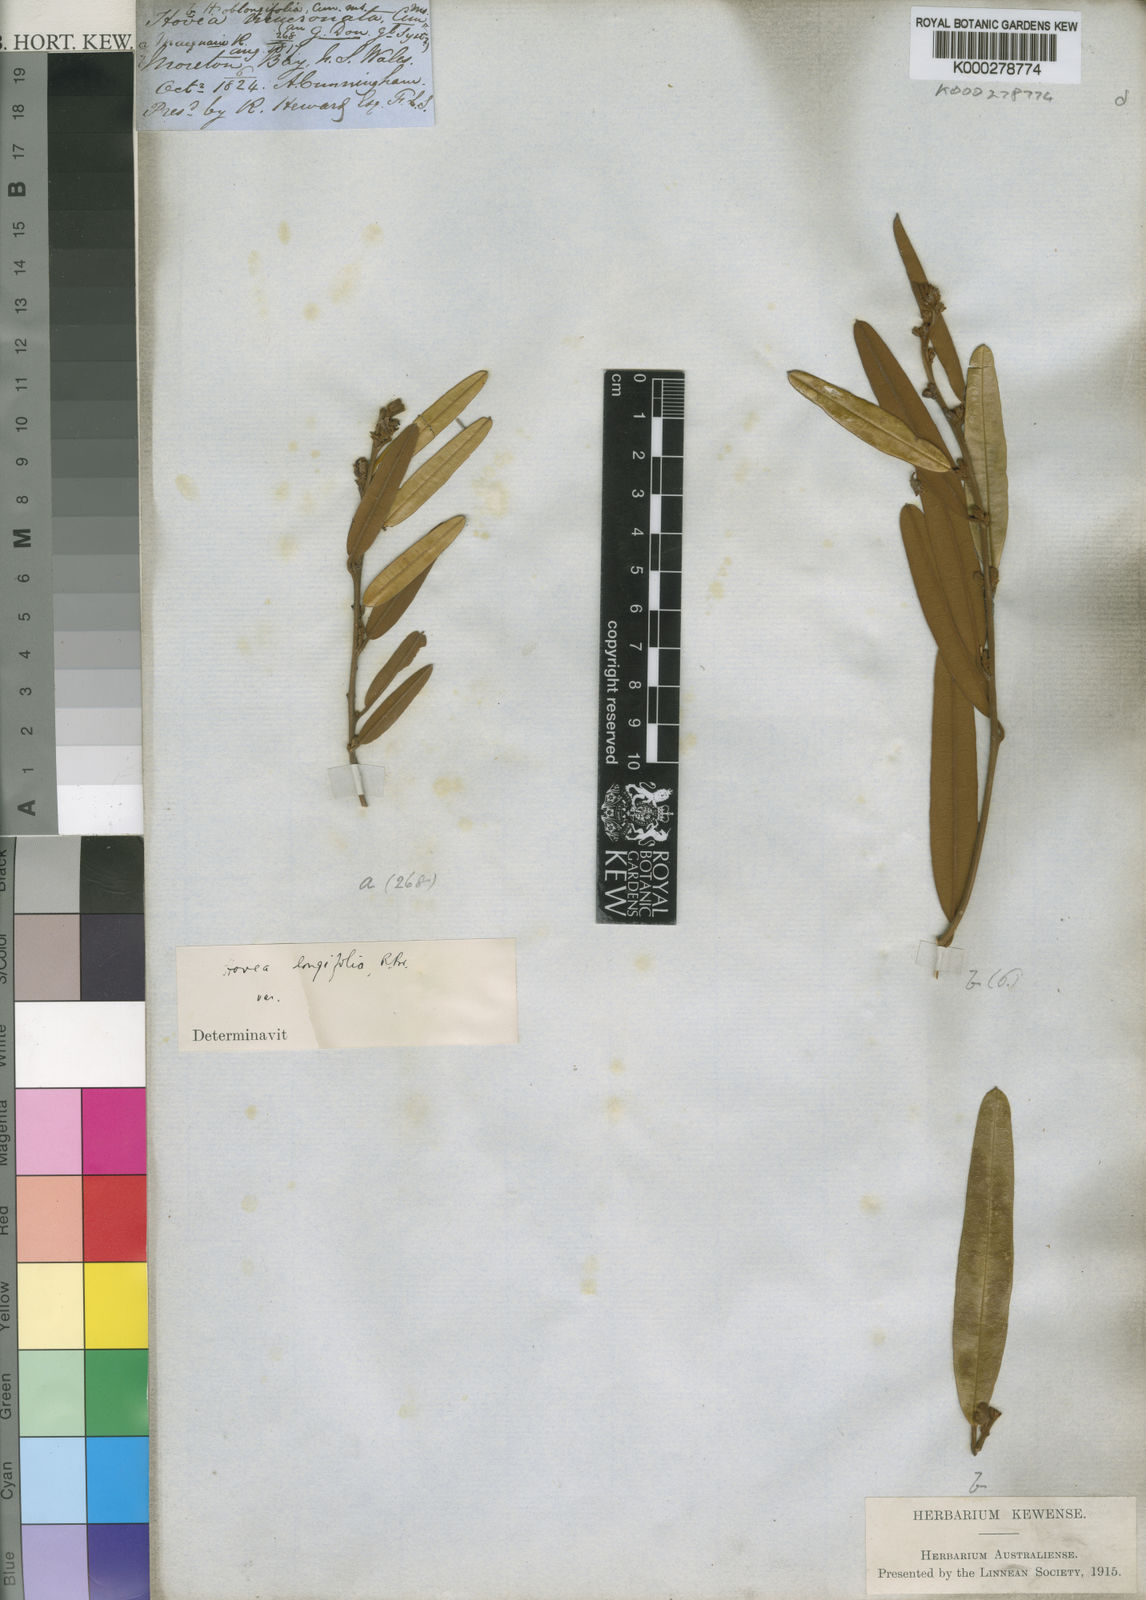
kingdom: Plantae
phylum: Tracheophyta
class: Magnoliopsida
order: Fabales
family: Fabaceae
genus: Hovea
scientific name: Hovea apiculata
